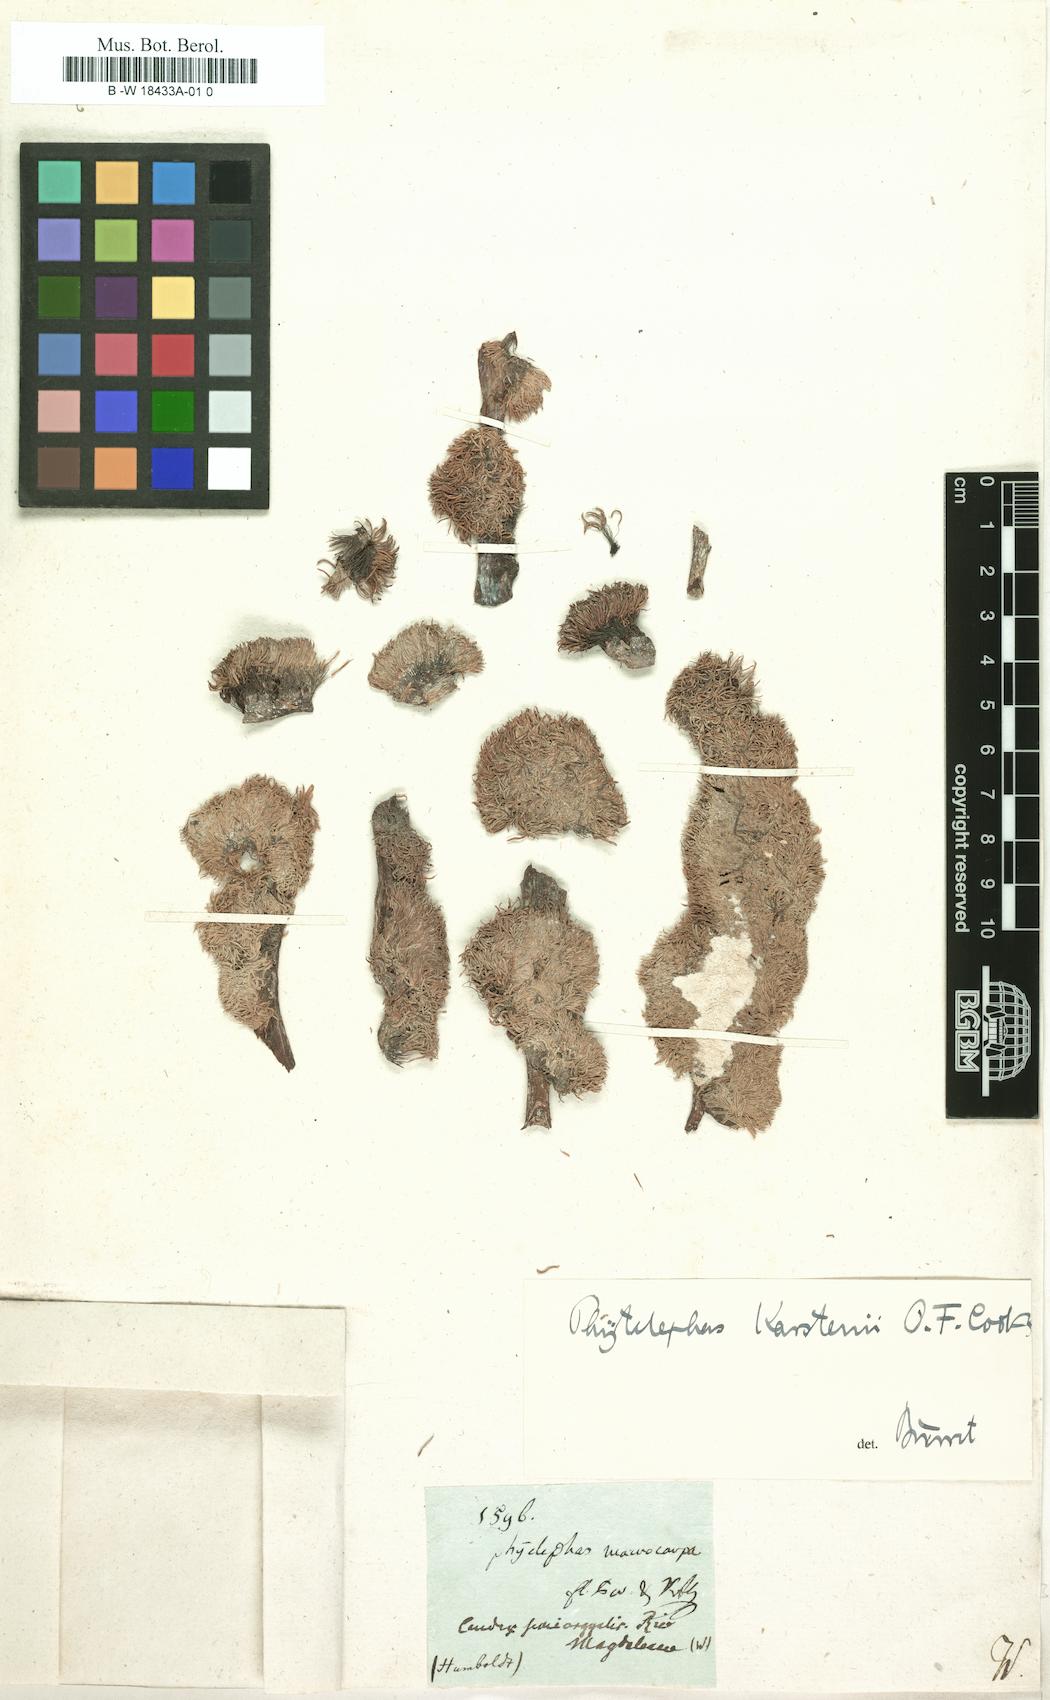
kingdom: Plantae
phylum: Tracheophyta
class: Liliopsida
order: Arecales
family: Arecaceae
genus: Phytelephas
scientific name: Phytelephas
